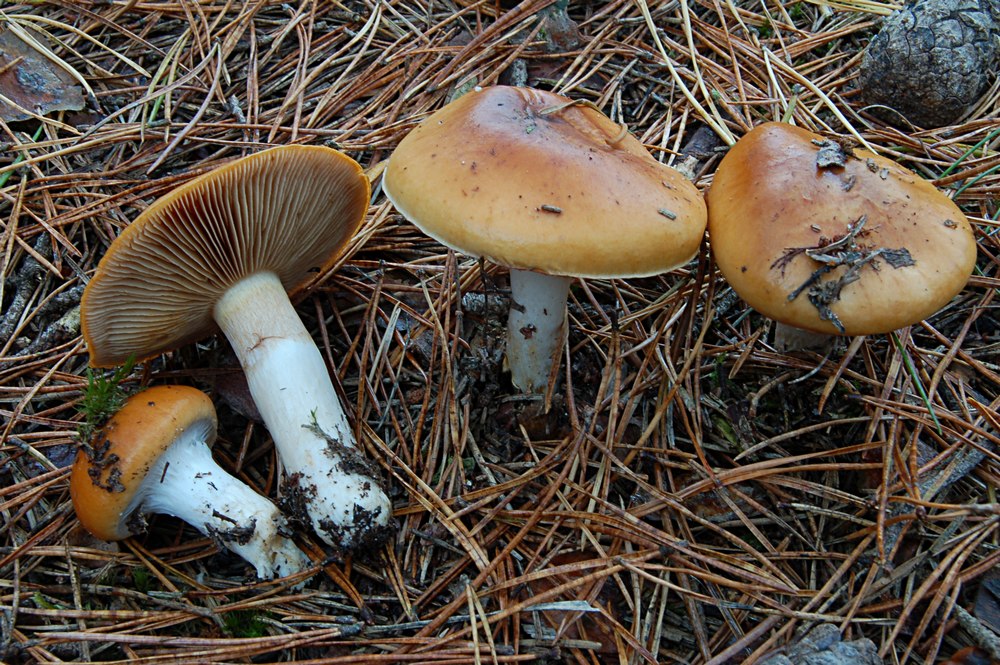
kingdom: Fungi
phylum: Basidiomycota
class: Agaricomycetes
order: Agaricales
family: Cortinariaceae
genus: Cortinarius
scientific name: Cortinarius mucosus
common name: kastaniebrun slørhat
